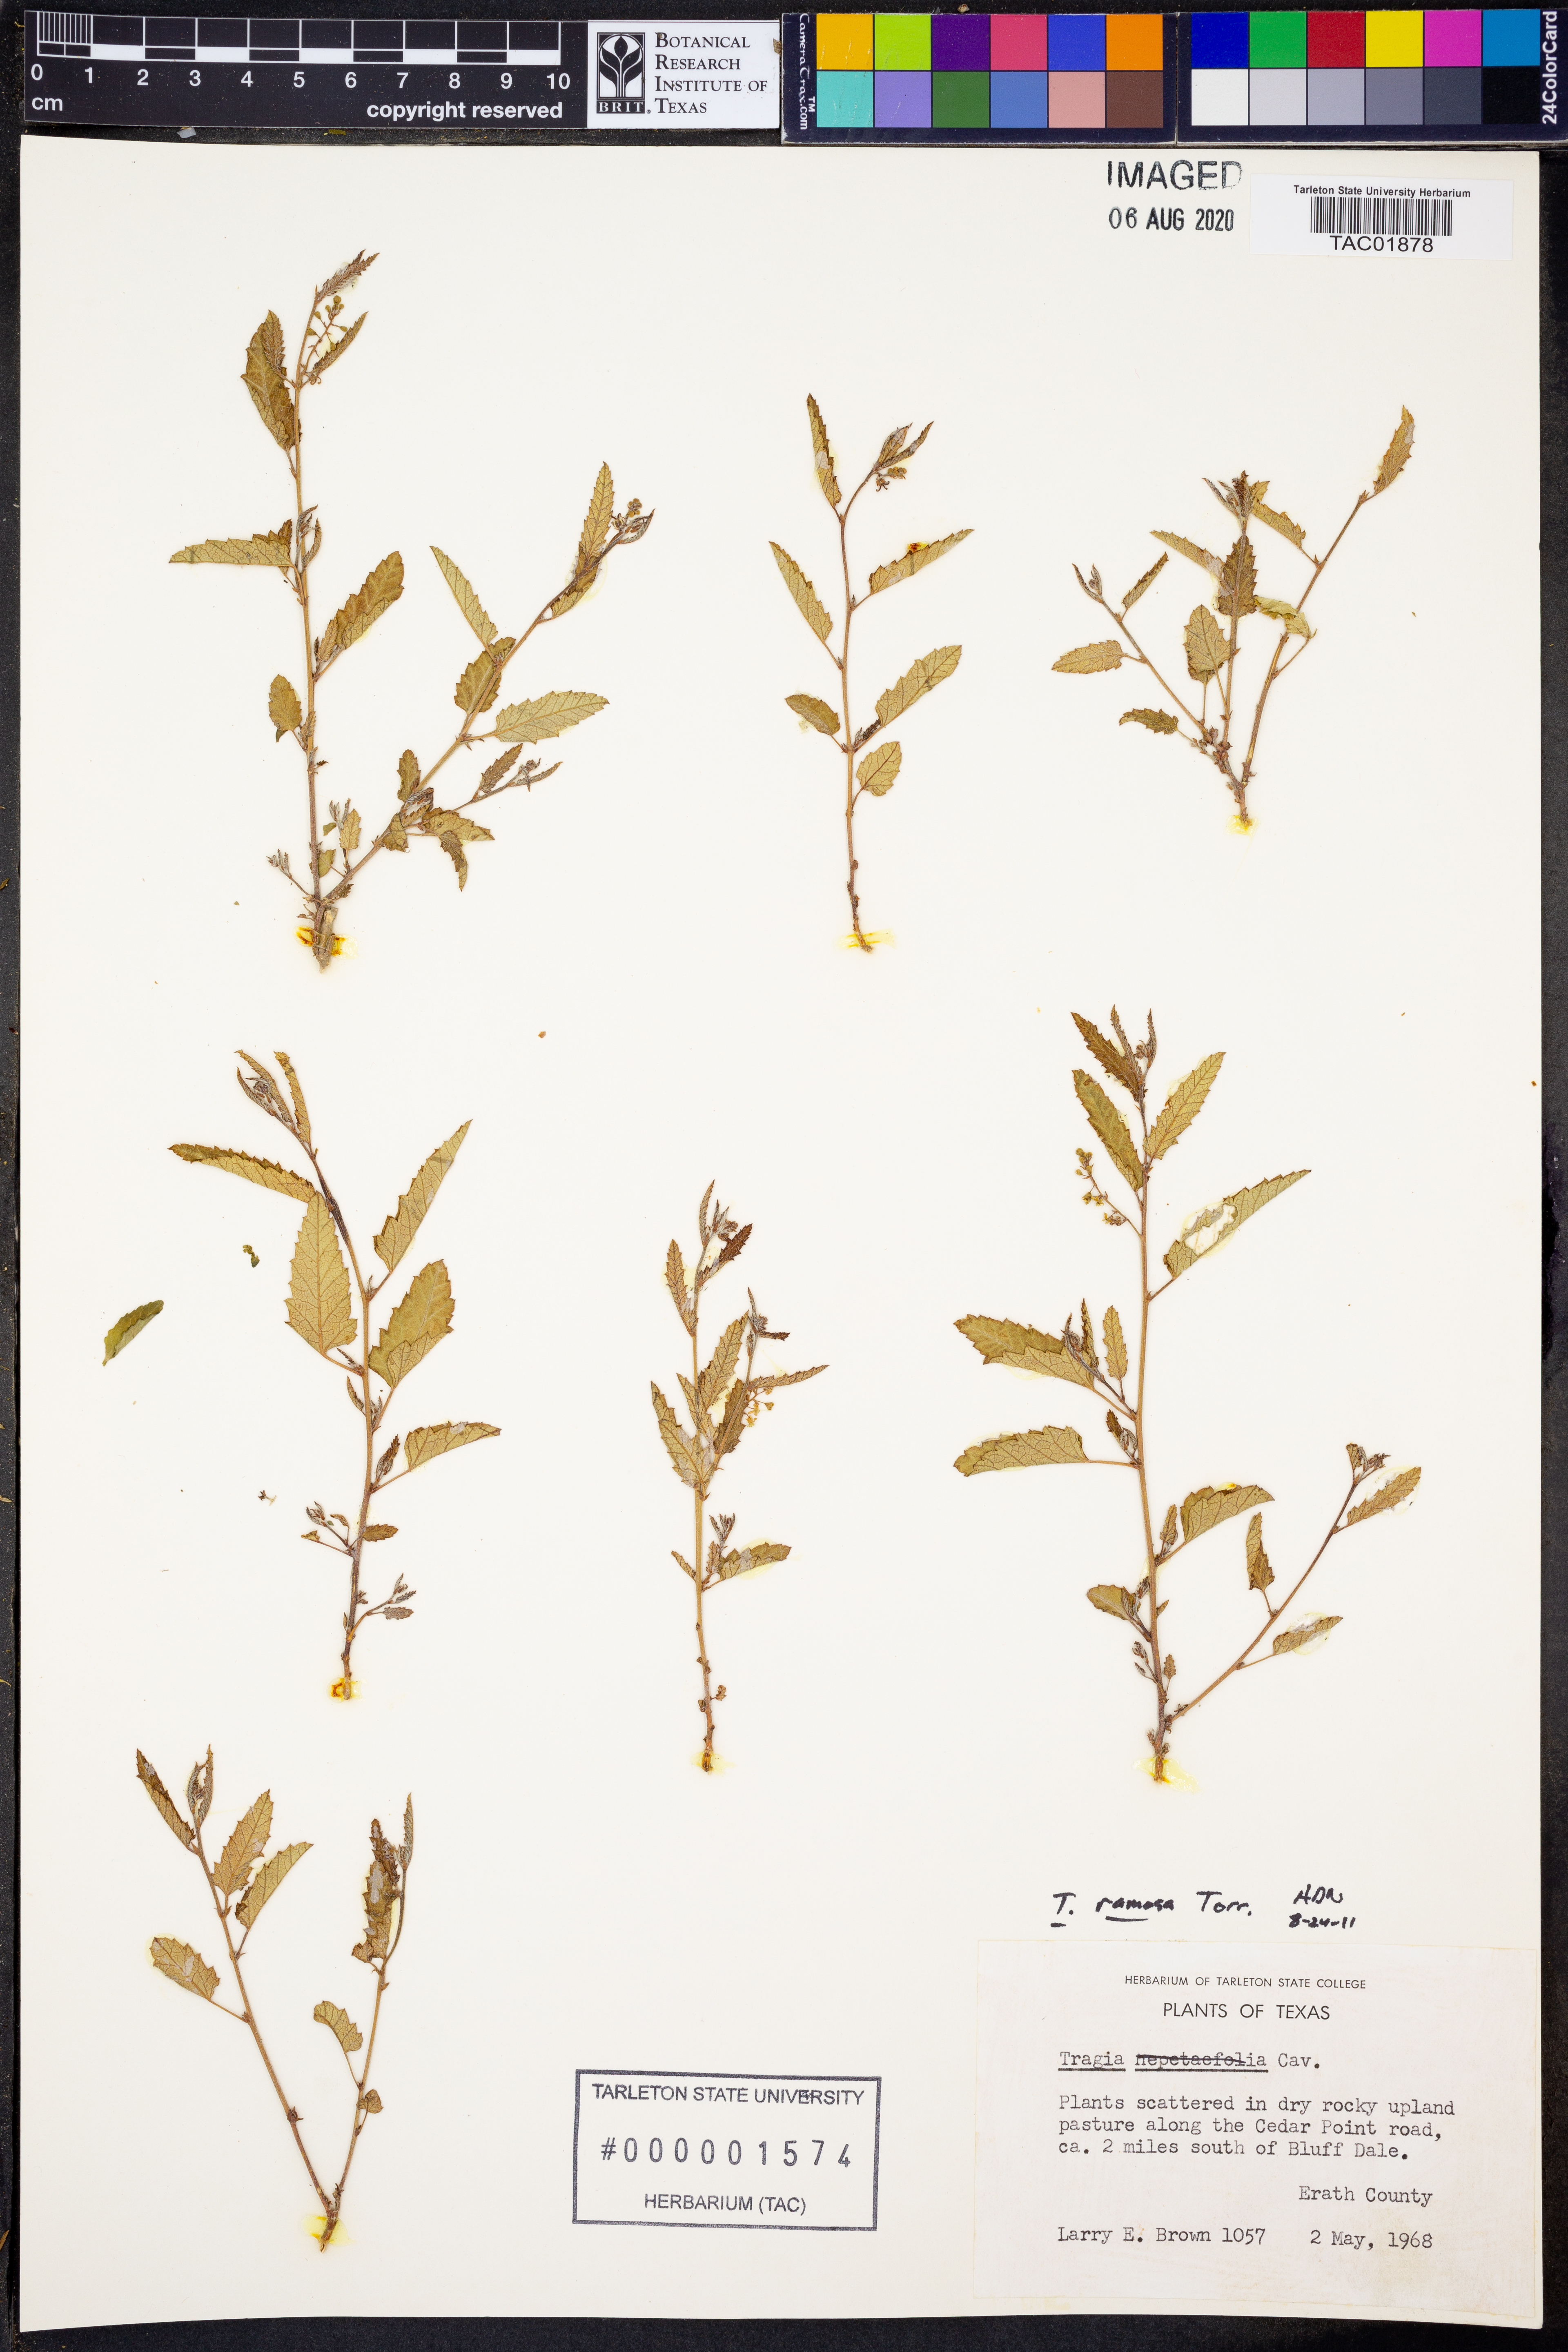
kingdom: Plantae
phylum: Tracheophyta
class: Magnoliopsida
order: Malpighiales
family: Euphorbiaceae
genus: Tragia
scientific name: Tragia ramosa
